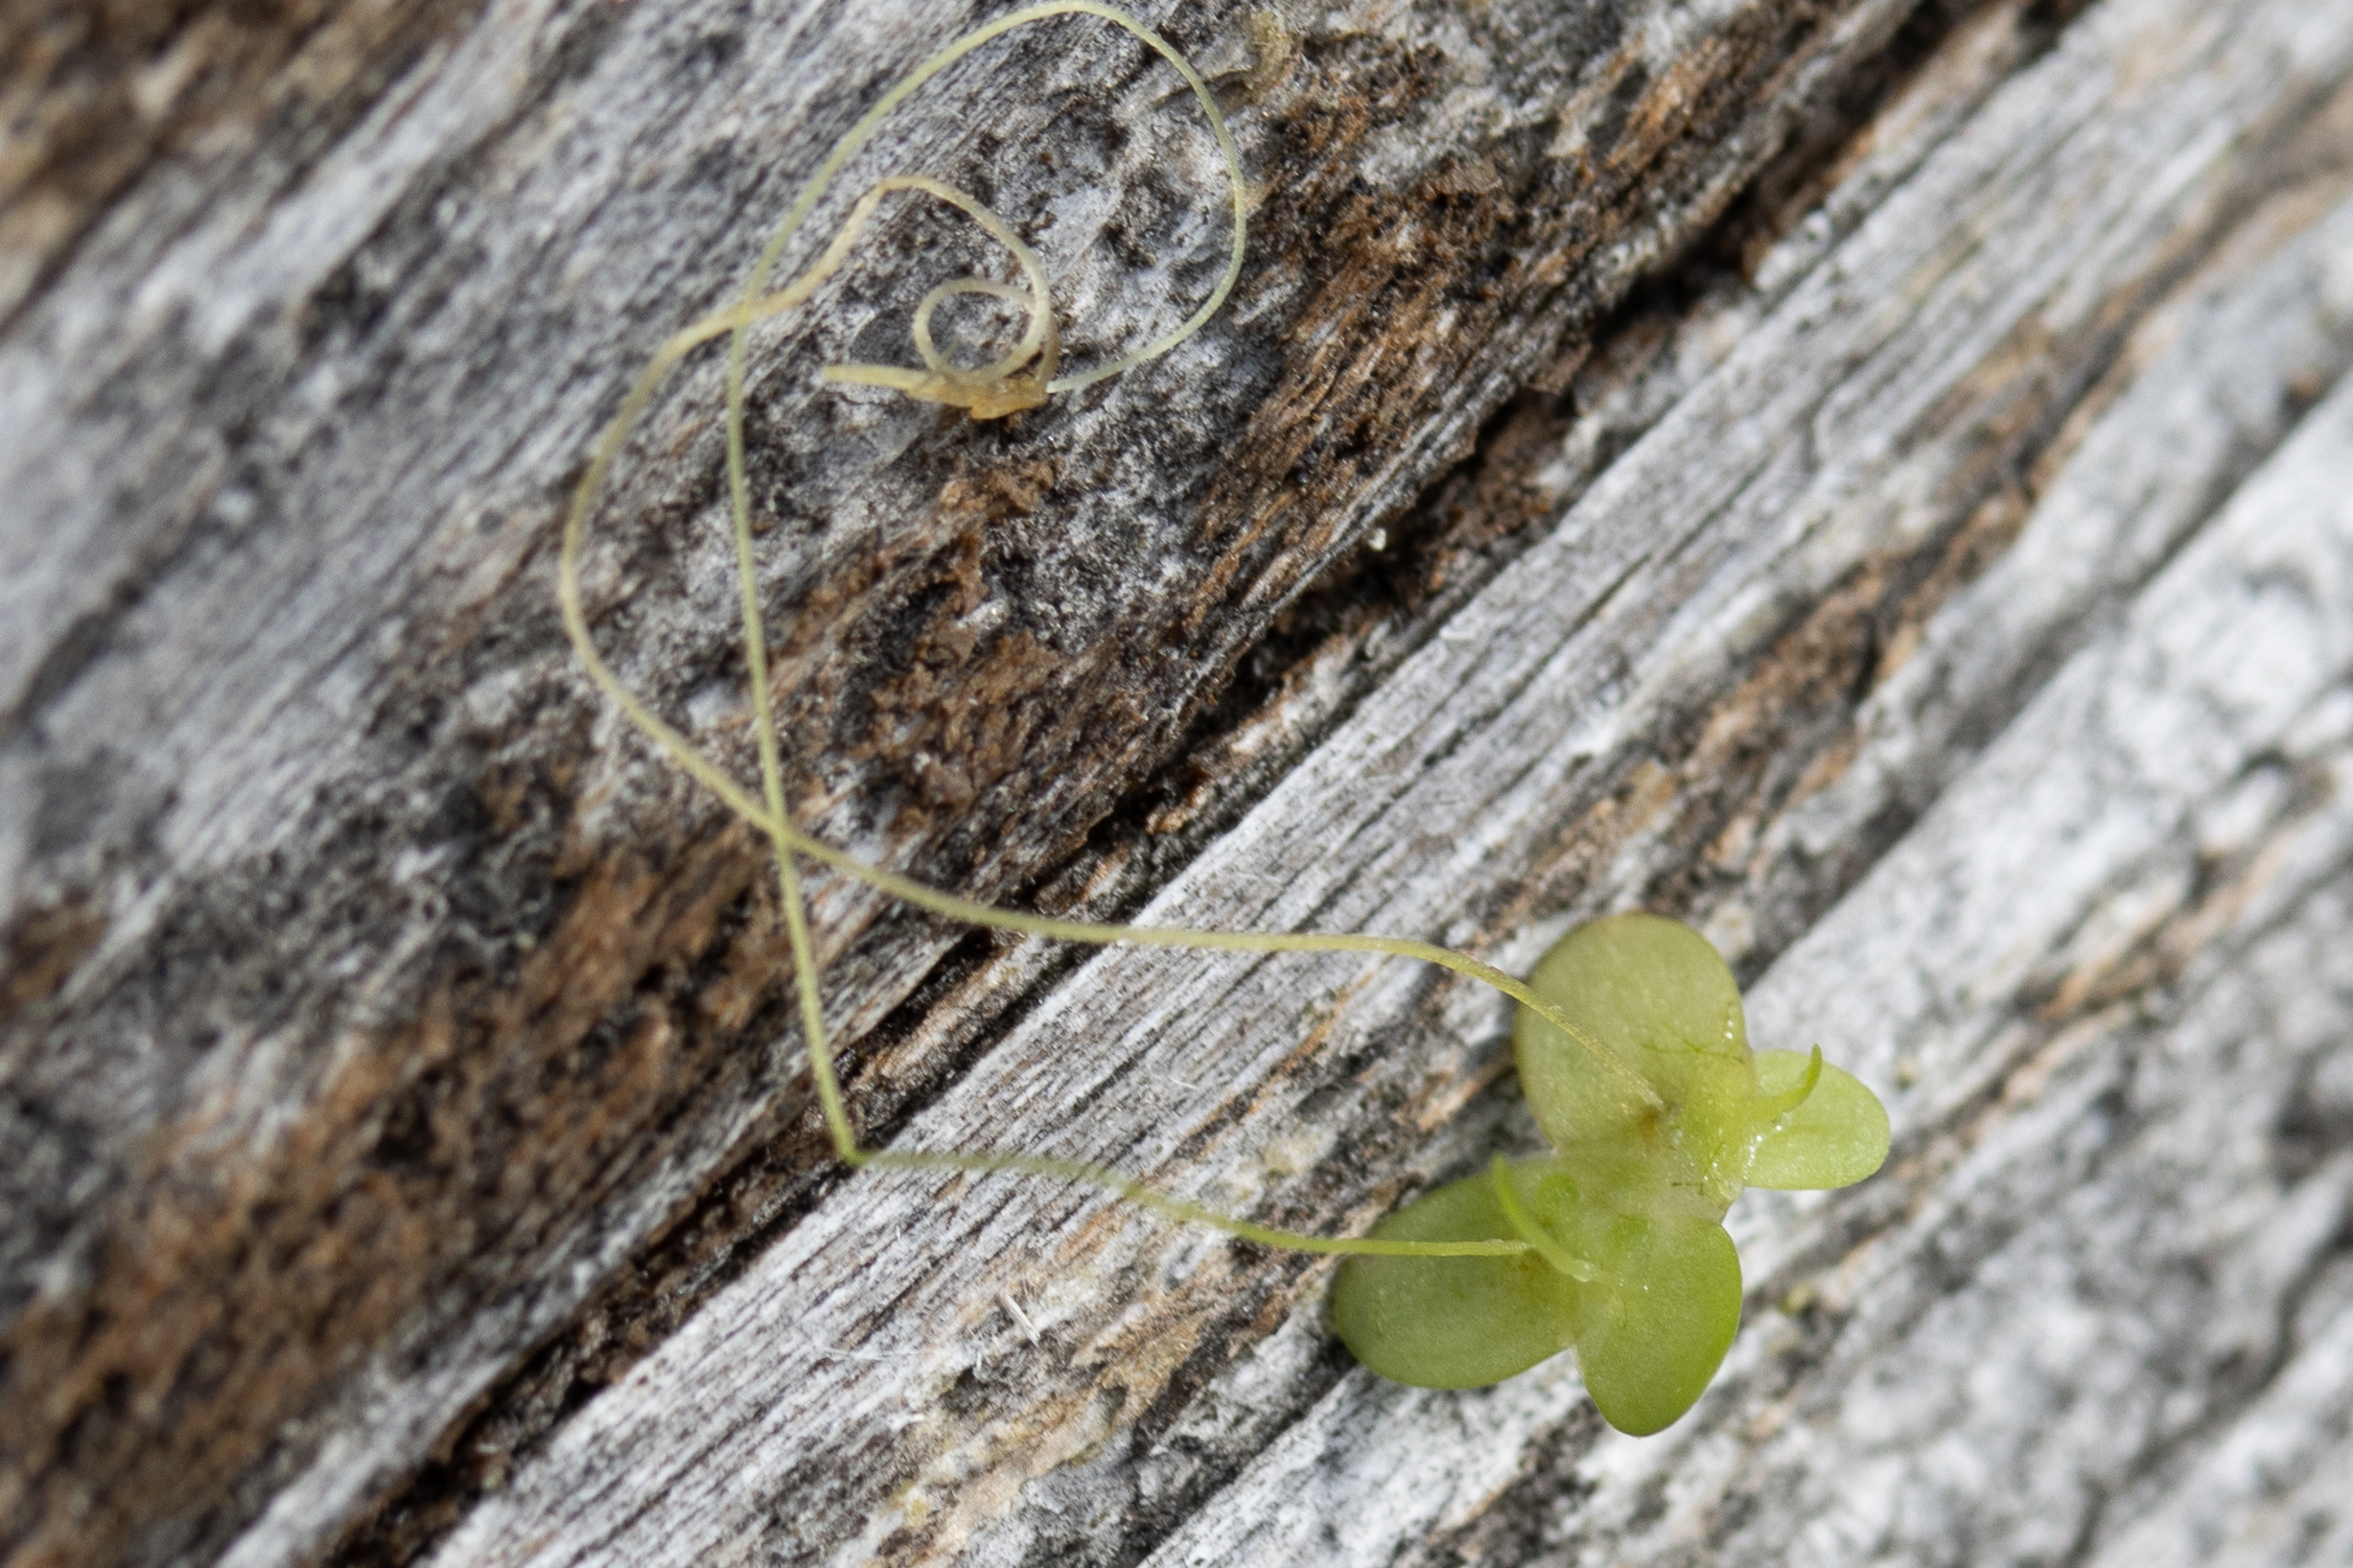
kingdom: Plantae
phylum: Tracheophyta
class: Liliopsida
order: Alismatales
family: Araceae
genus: Lemna
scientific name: Lemna minor
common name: Liden andemad
